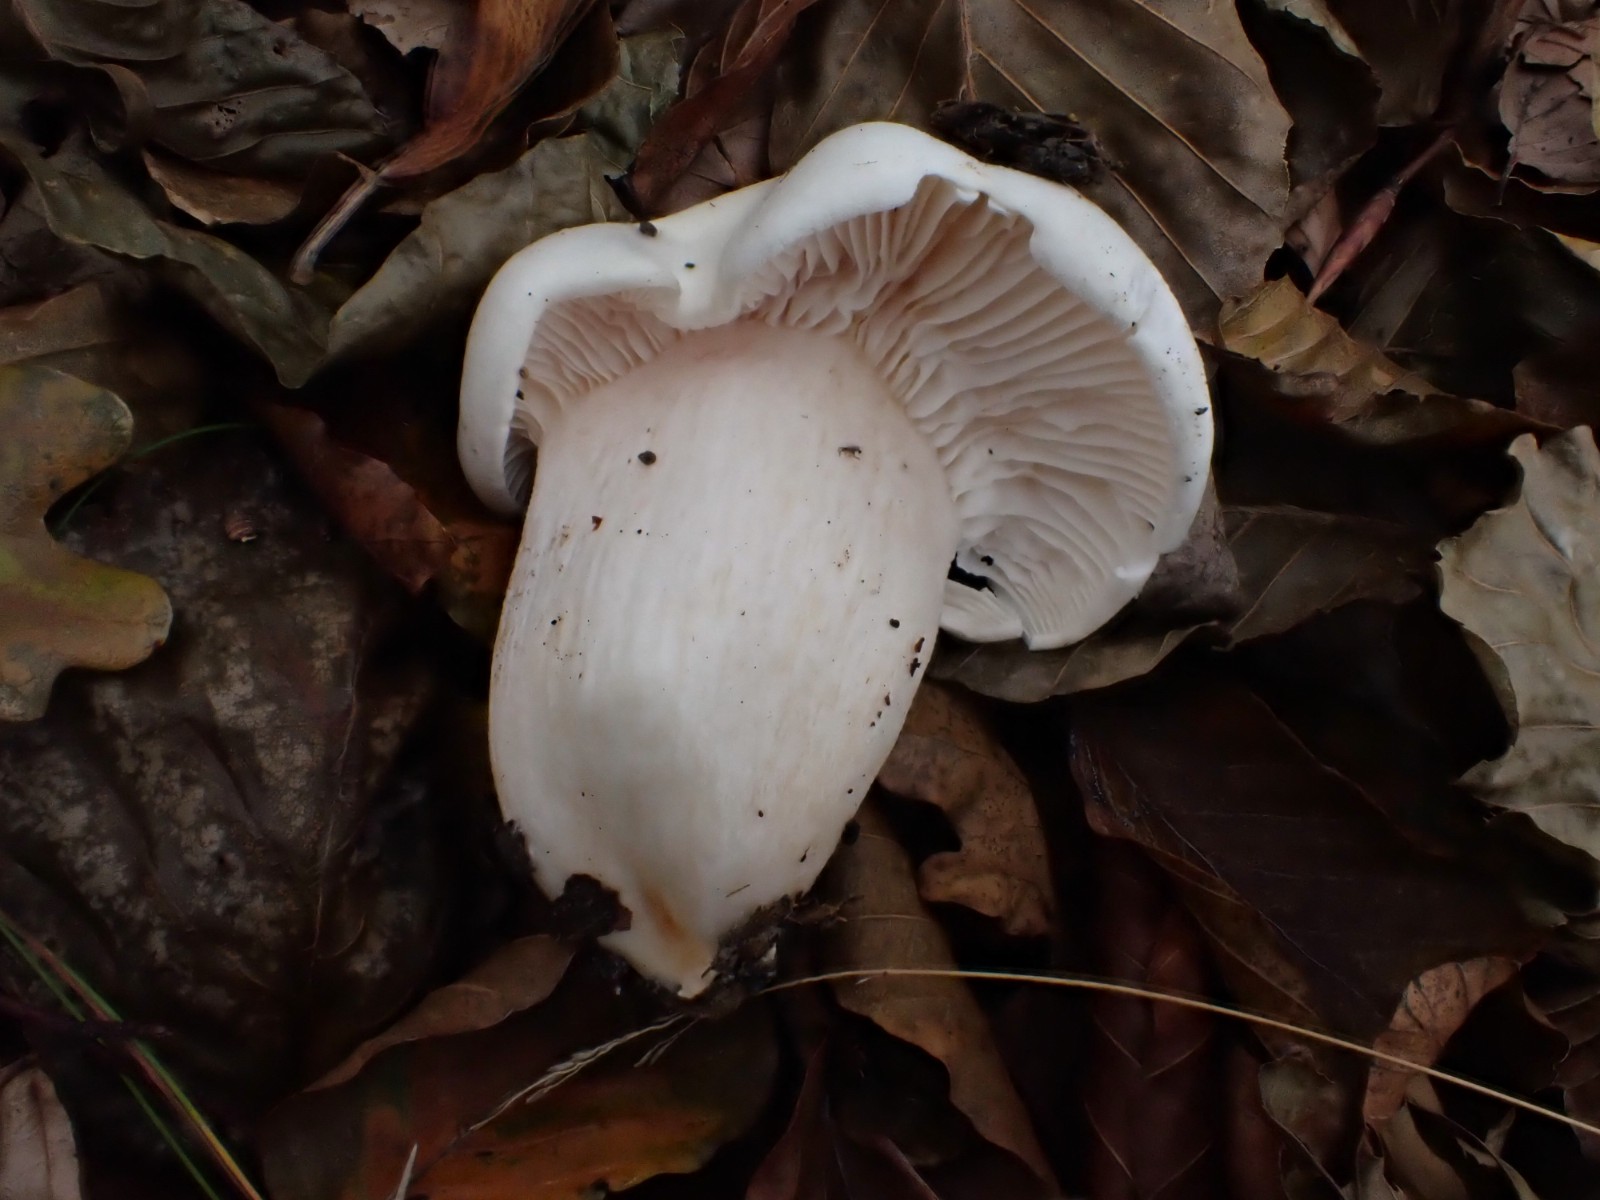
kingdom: Fungi
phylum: Basidiomycota
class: Agaricomycetes
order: Agaricales
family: Hygrophoraceae
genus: Hygrophorus
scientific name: Hygrophorus penarius
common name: spiselig sneglehat
